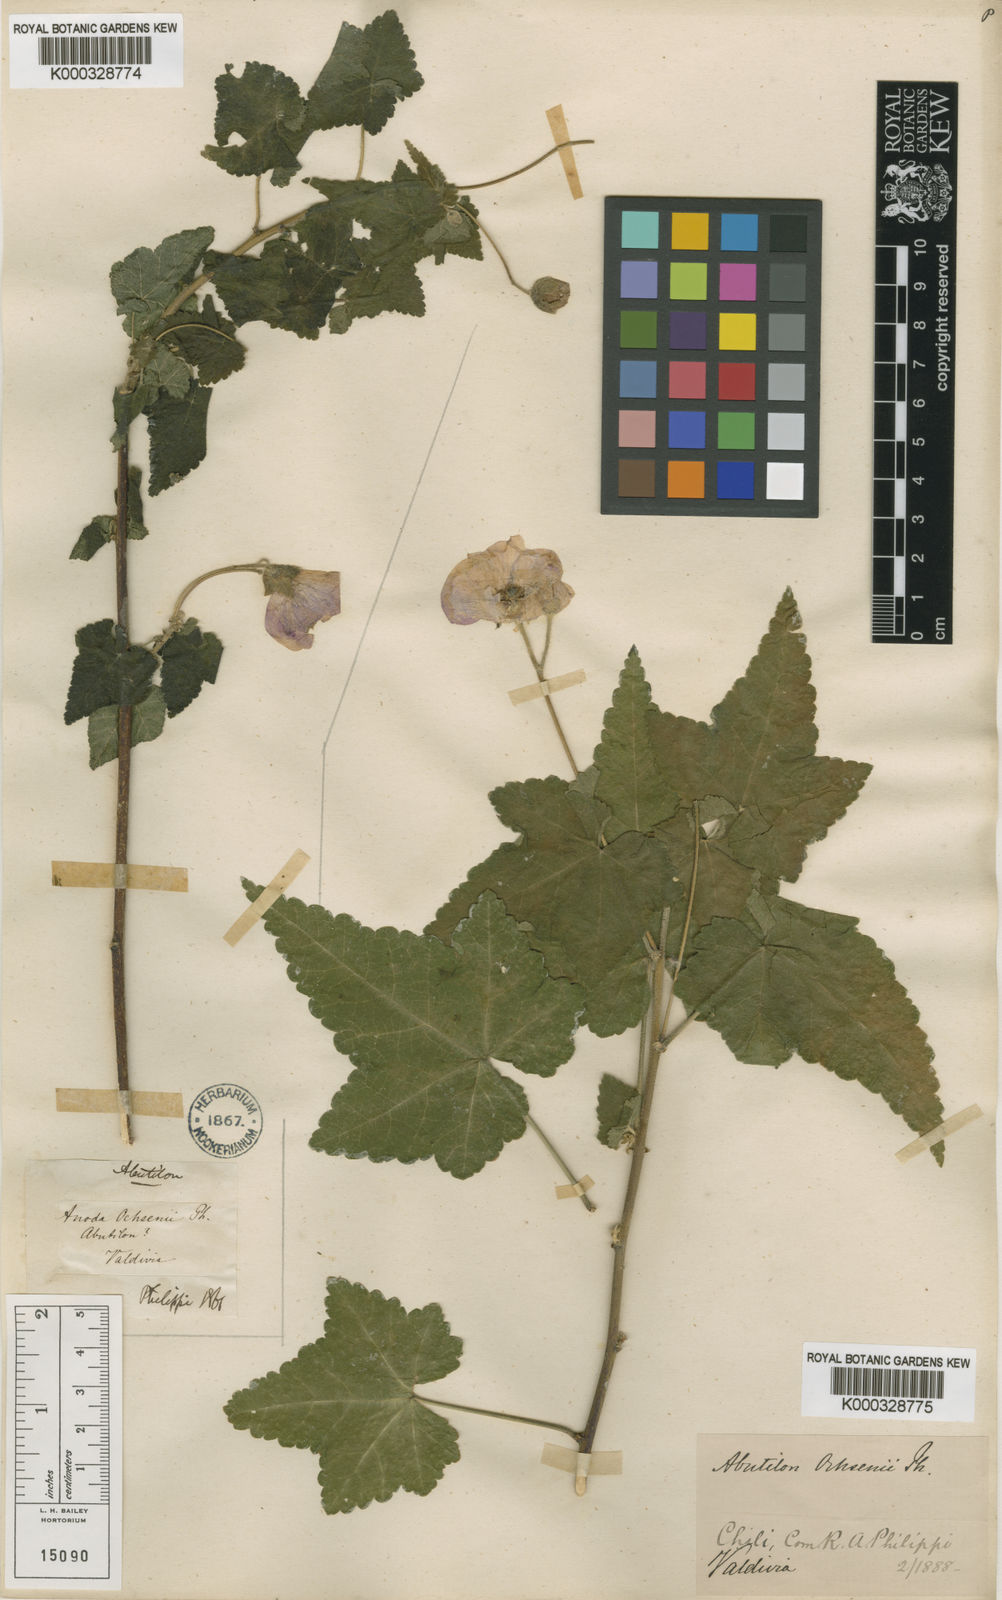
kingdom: Plantae
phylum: Tracheophyta
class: Magnoliopsida
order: Malvales
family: Malvaceae
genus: Corynabutilon
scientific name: Corynabutilon ochsenii
